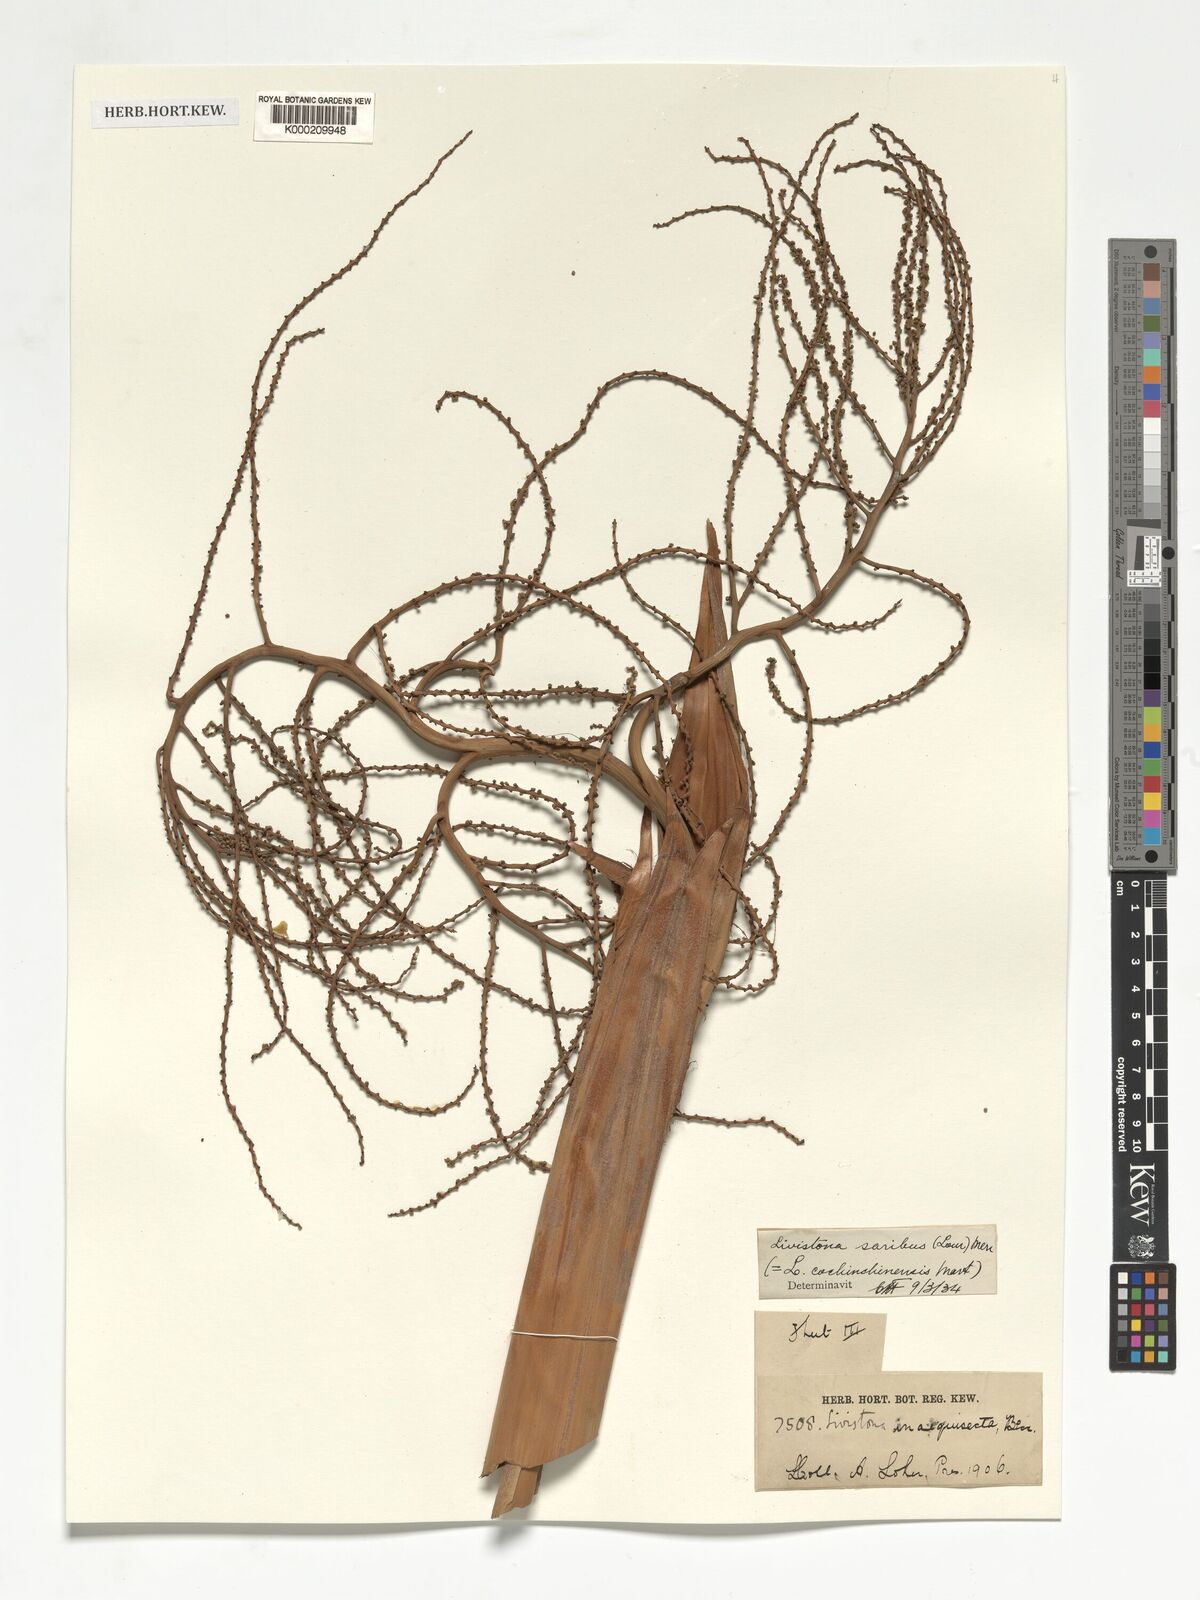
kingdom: Plantae
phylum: Tracheophyta
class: Liliopsida
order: Arecales
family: Arecaceae
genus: Livistona
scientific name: Livistona saribus
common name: Taraw palm
